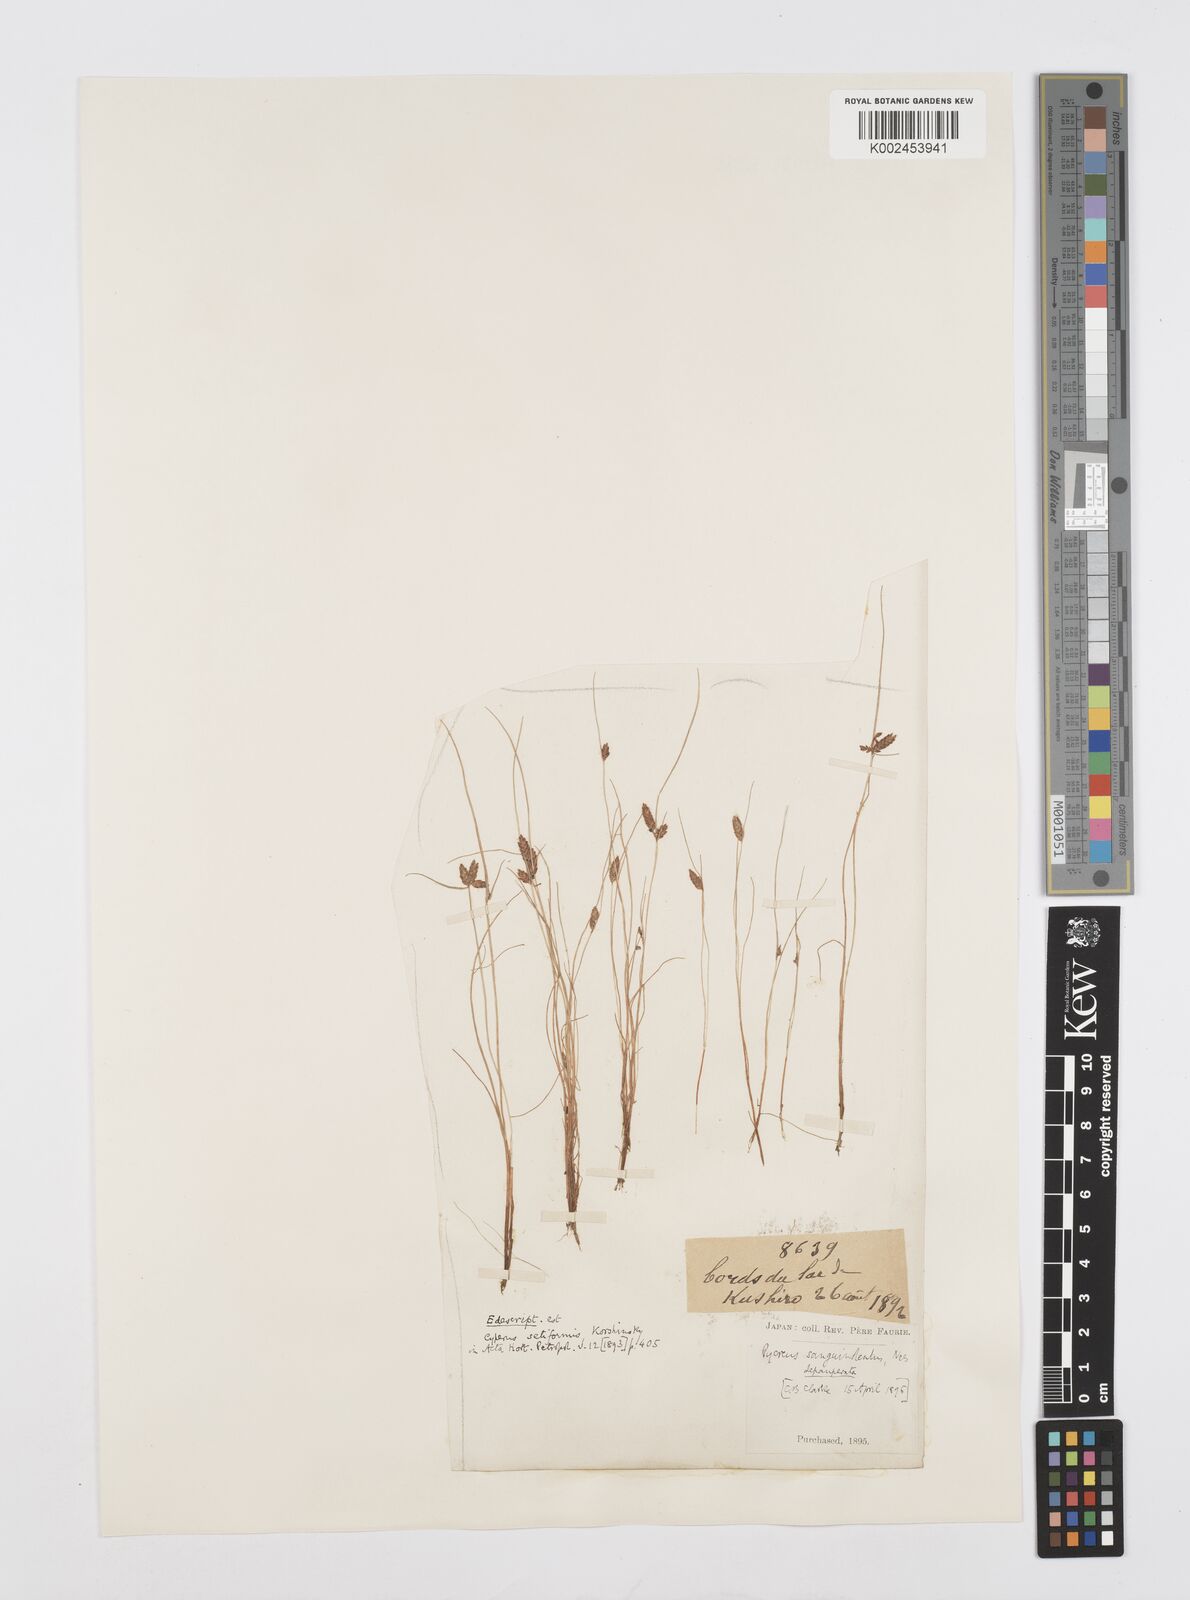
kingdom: Plantae
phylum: Tracheophyta
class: Liliopsida
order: Poales
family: Cyperaceae
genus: Cyperus
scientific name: Cyperus sanguinolentus
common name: Purpleglume flatsedge
